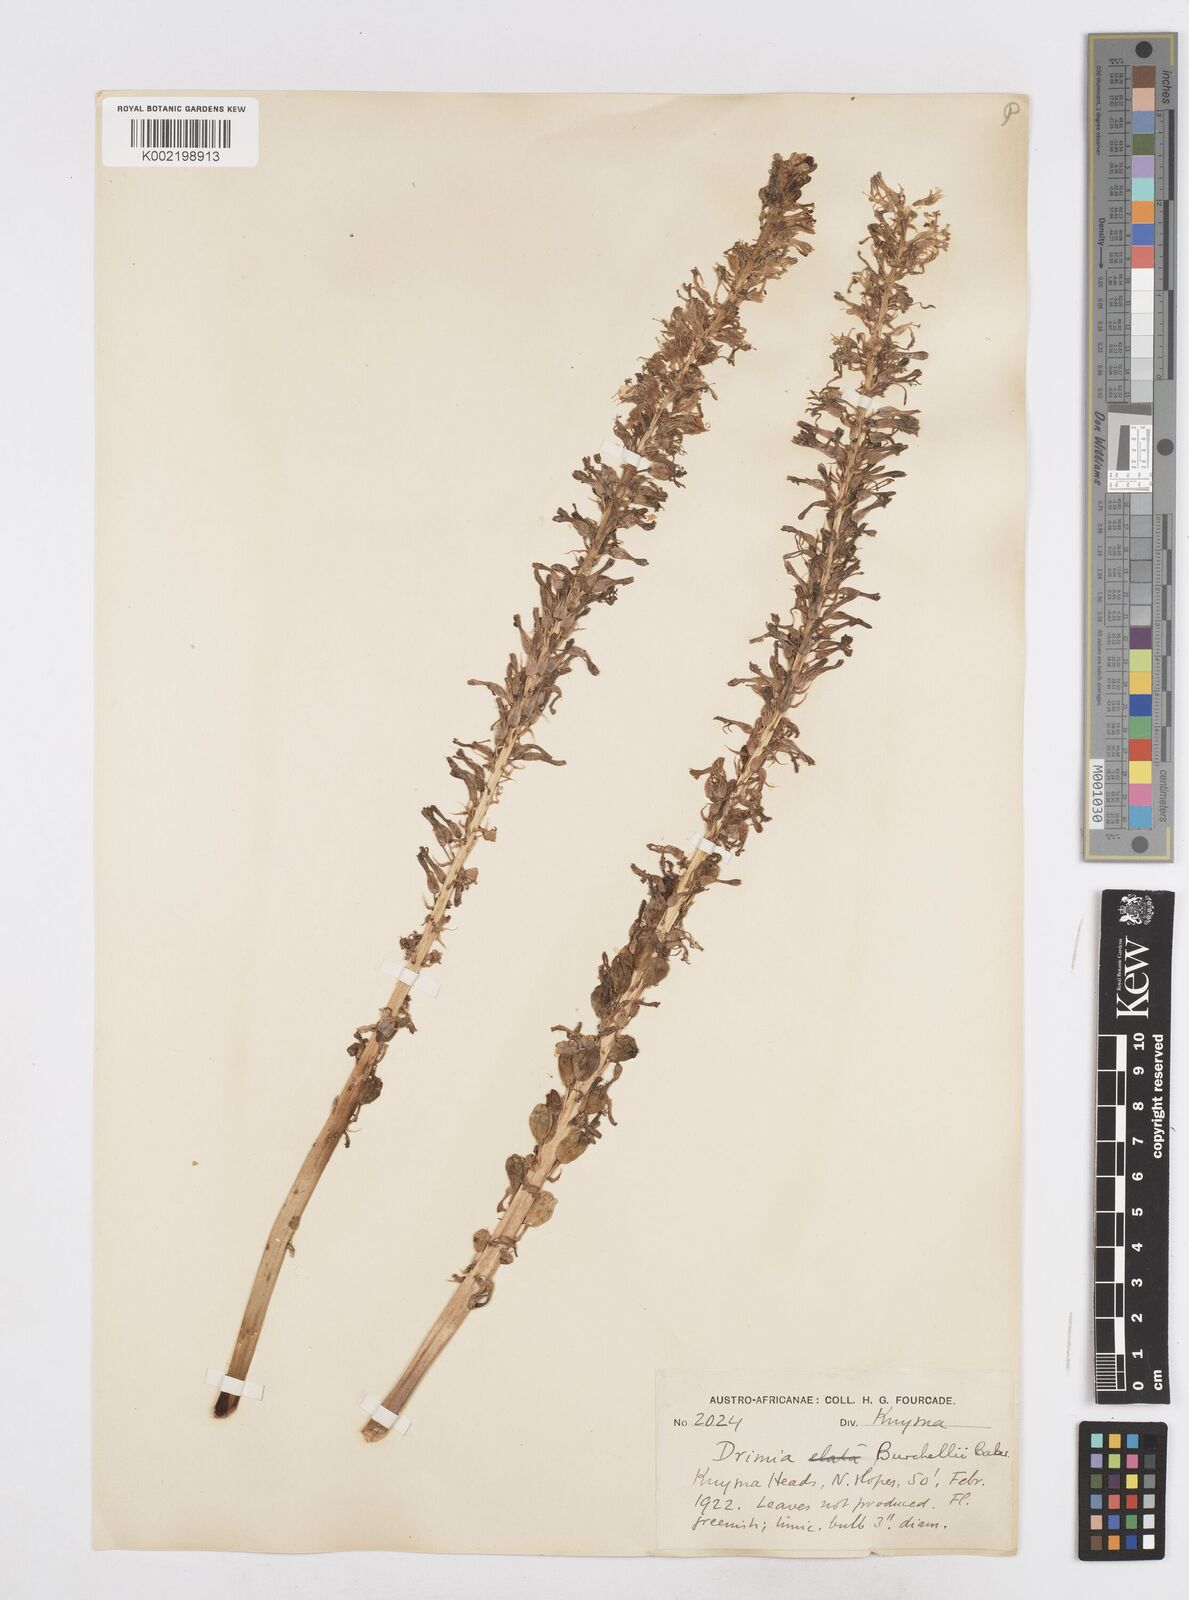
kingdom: Plantae
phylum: Tracheophyta
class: Liliopsida
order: Asparagales
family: Asparagaceae
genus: Drimia
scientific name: Drimia elata
